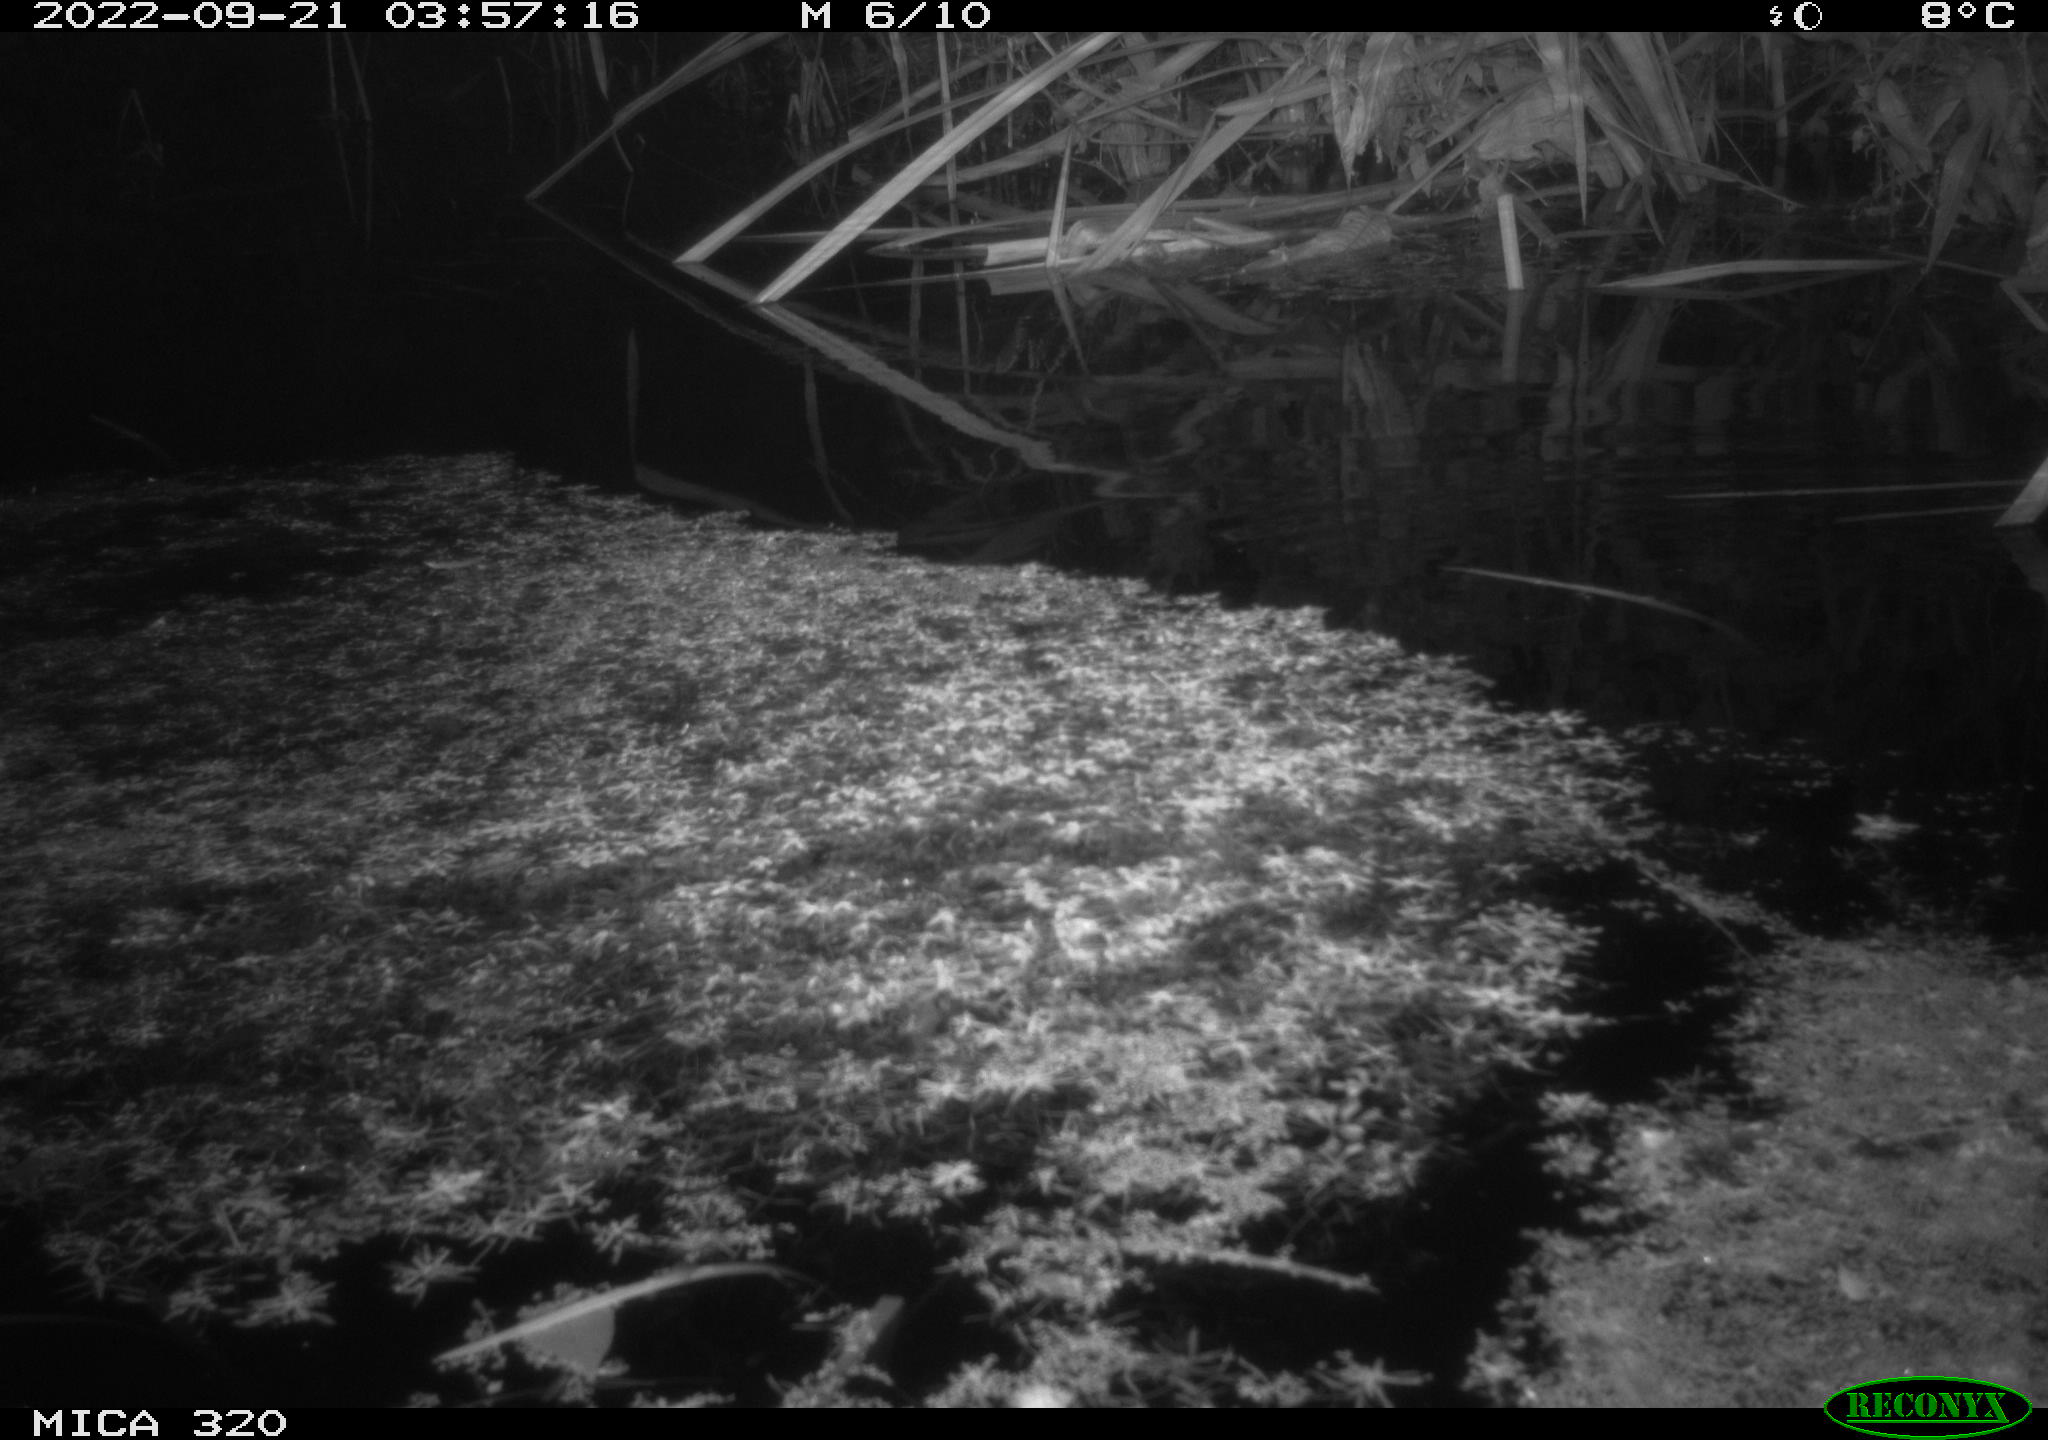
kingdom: Animalia
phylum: Chordata
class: Mammalia
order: Rodentia
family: Muridae
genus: Rattus
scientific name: Rattus norvegicus
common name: Brown rat
